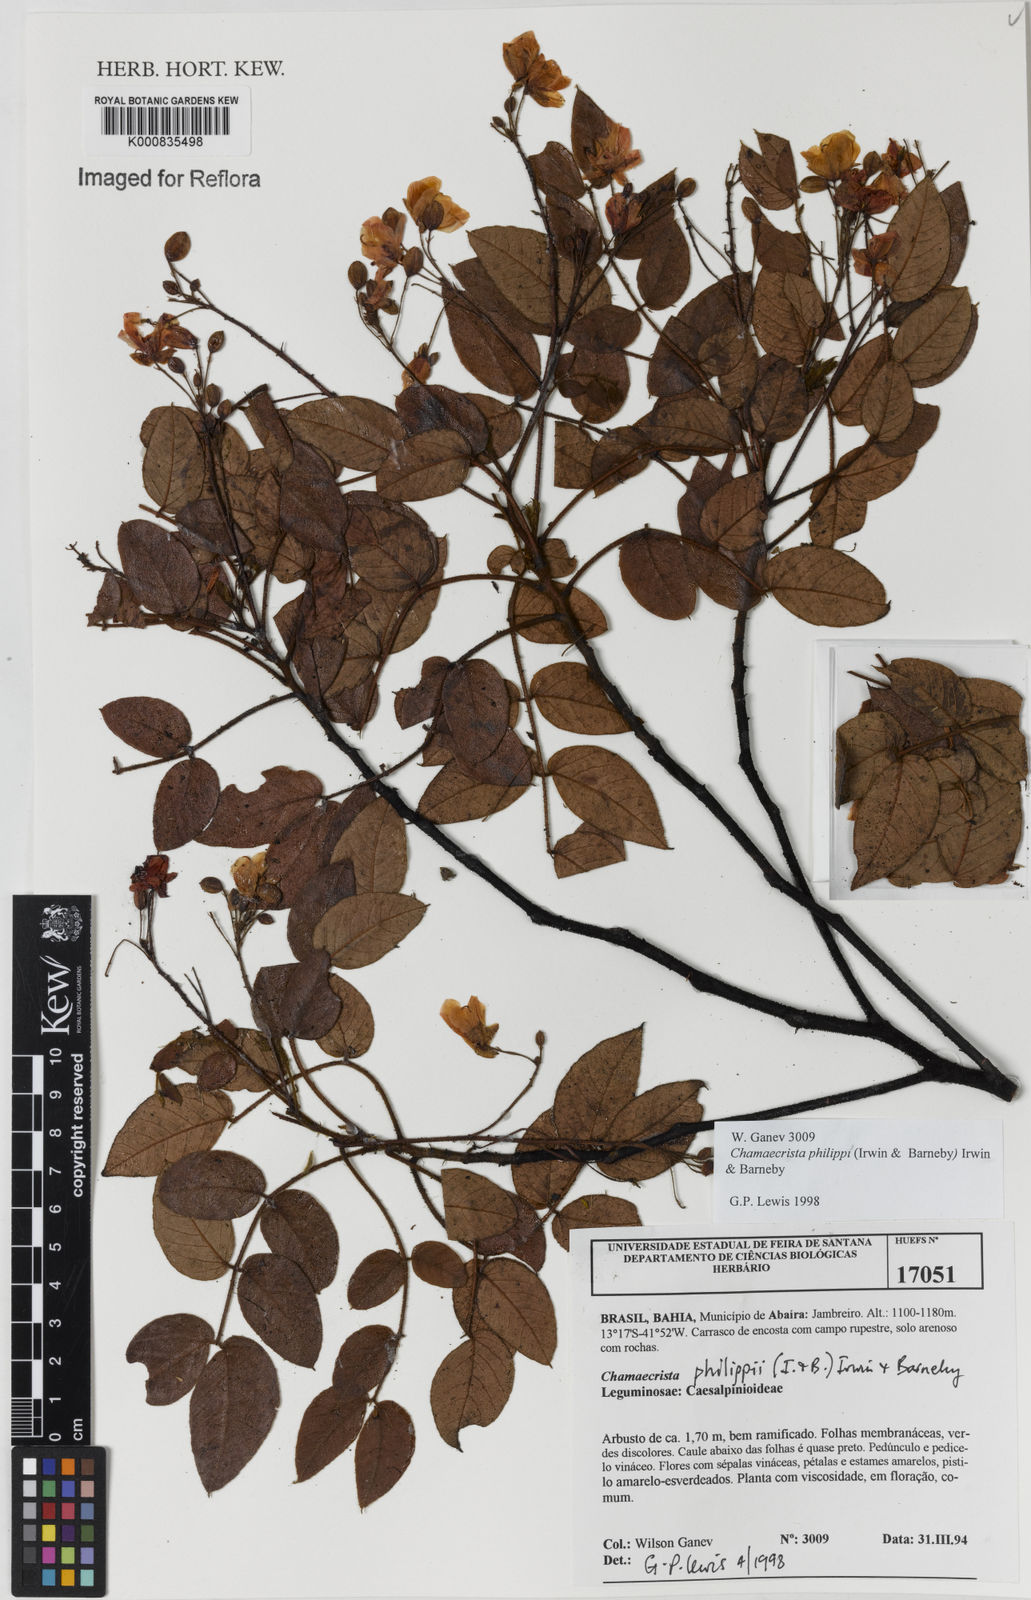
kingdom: Plantae
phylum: Tracheophyta
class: Magnoliopsida
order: Fabales
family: Fabaceae
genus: Chamaecrista
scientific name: Chamaecrista philippii
